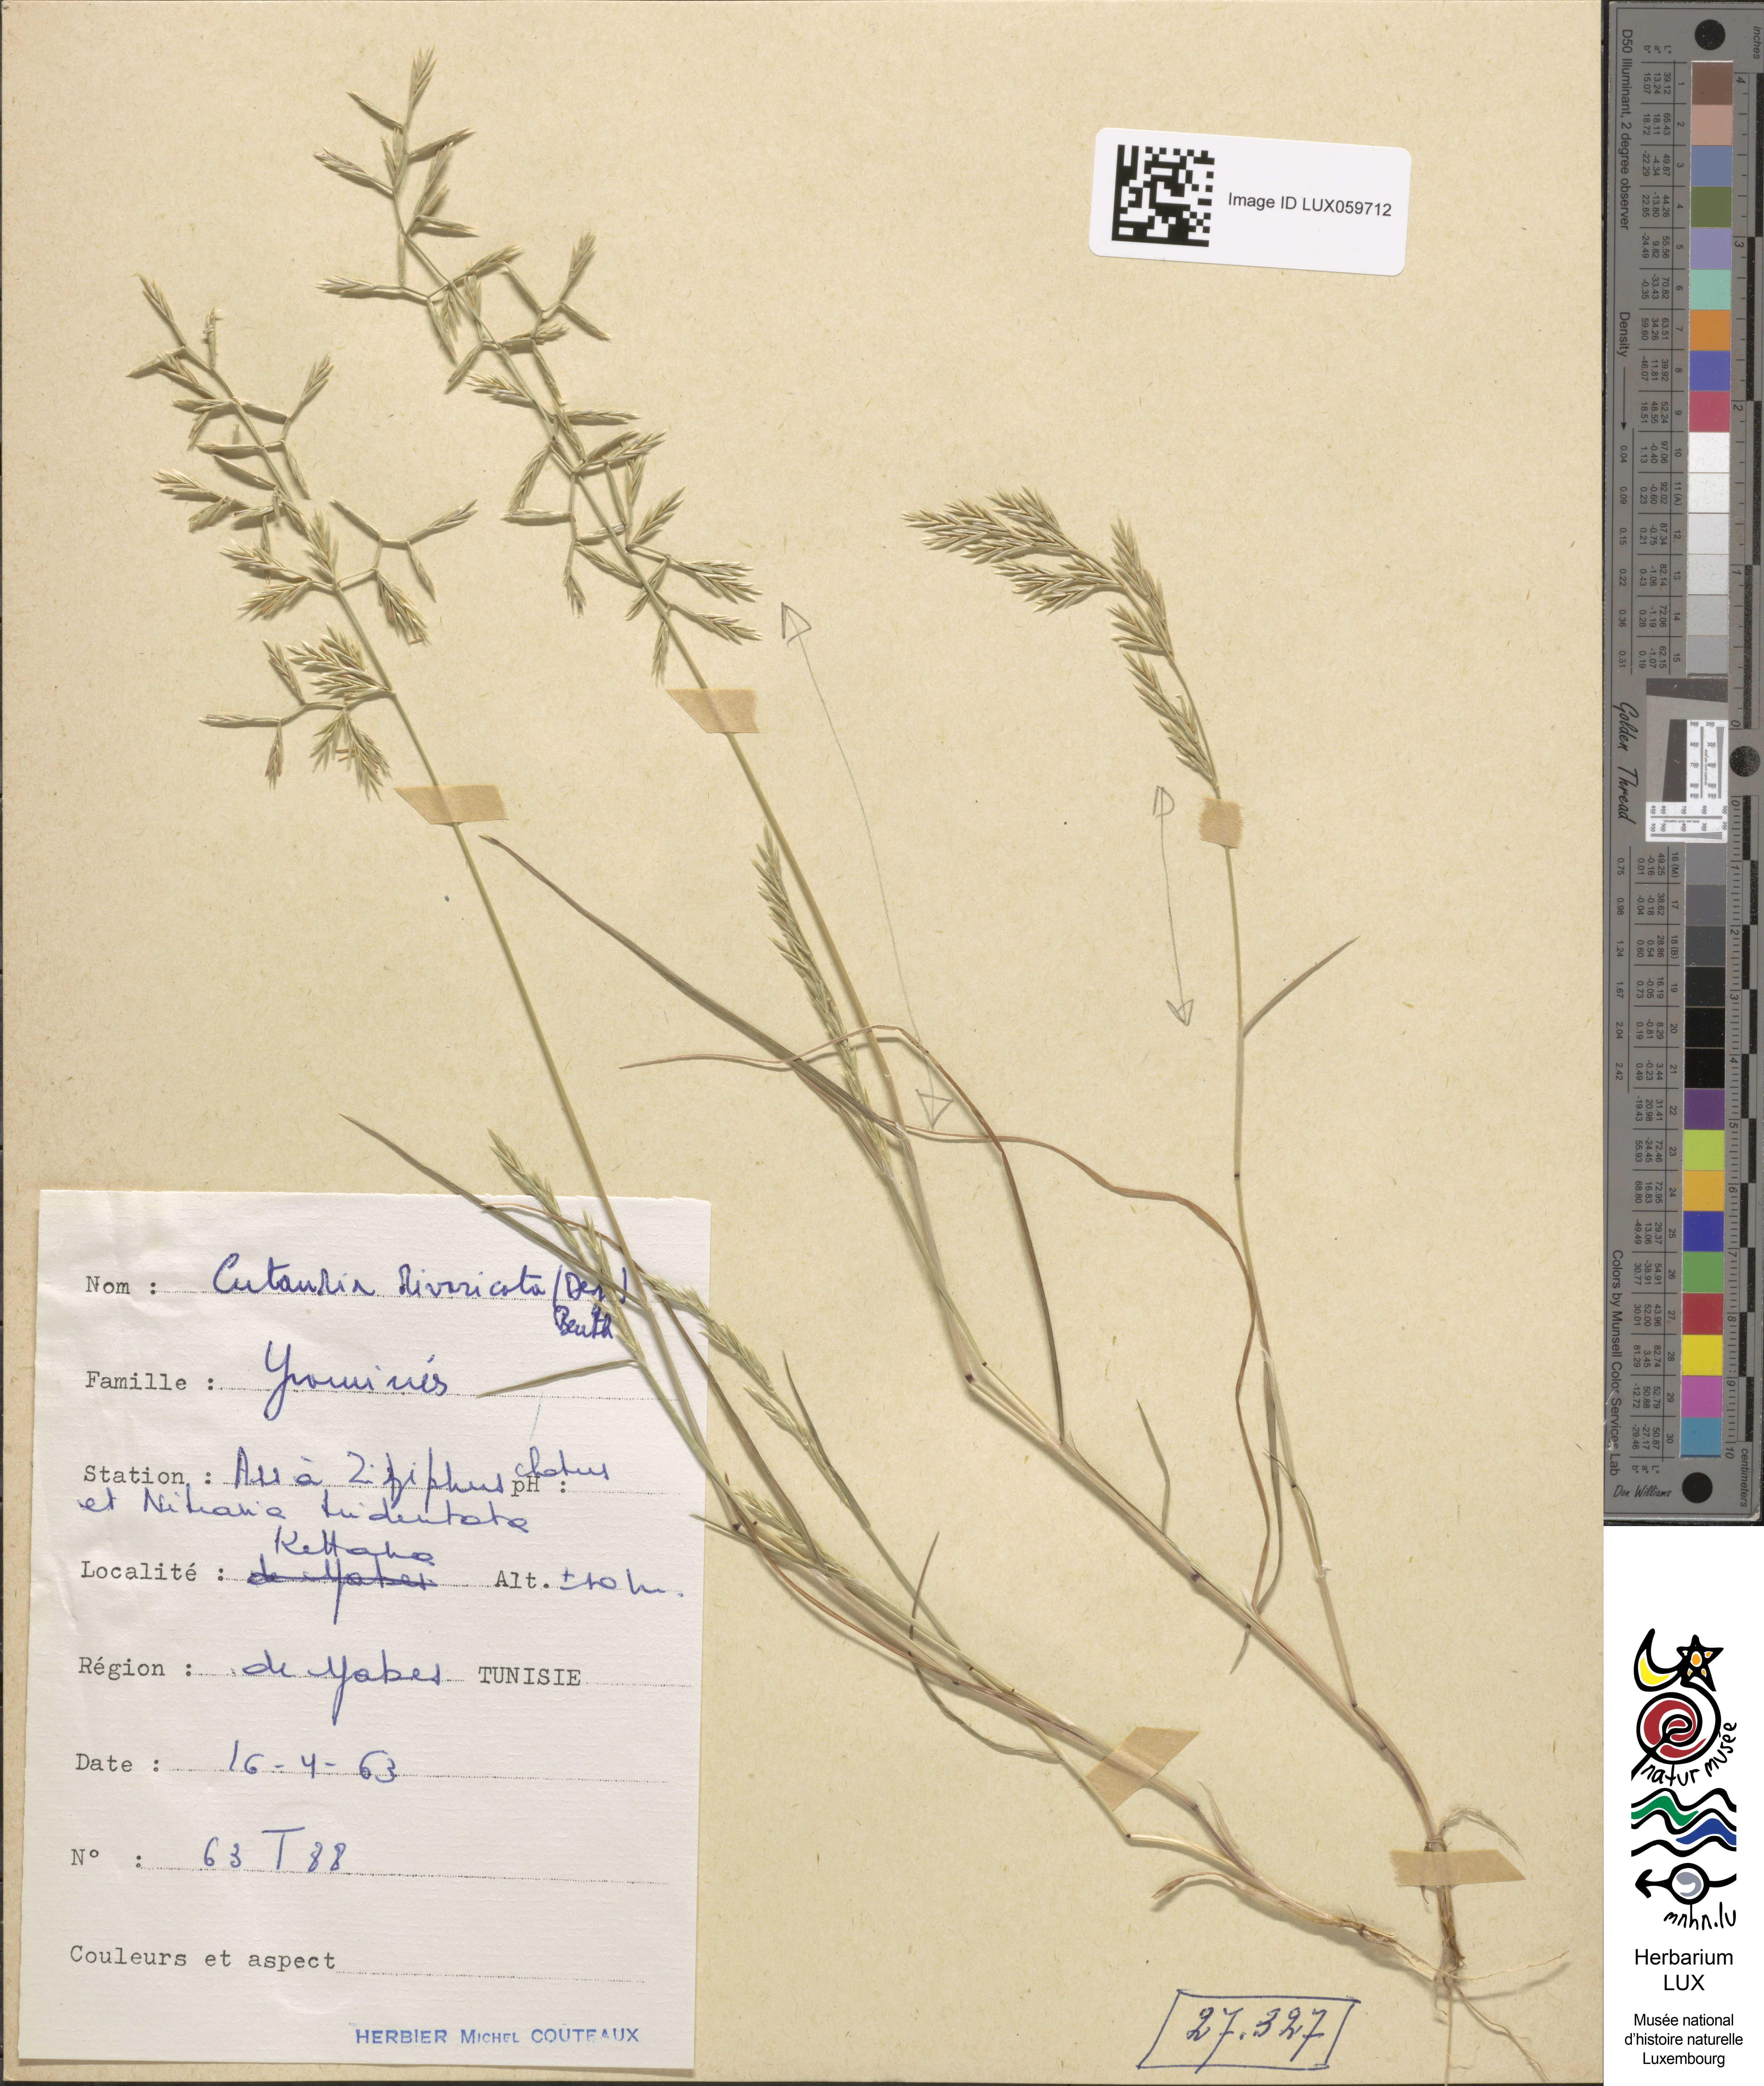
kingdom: Plantae
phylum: Tracheophyta
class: Liliopsida
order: Poales
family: Poaceae
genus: Cutandia
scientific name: Cutandia divaricata
